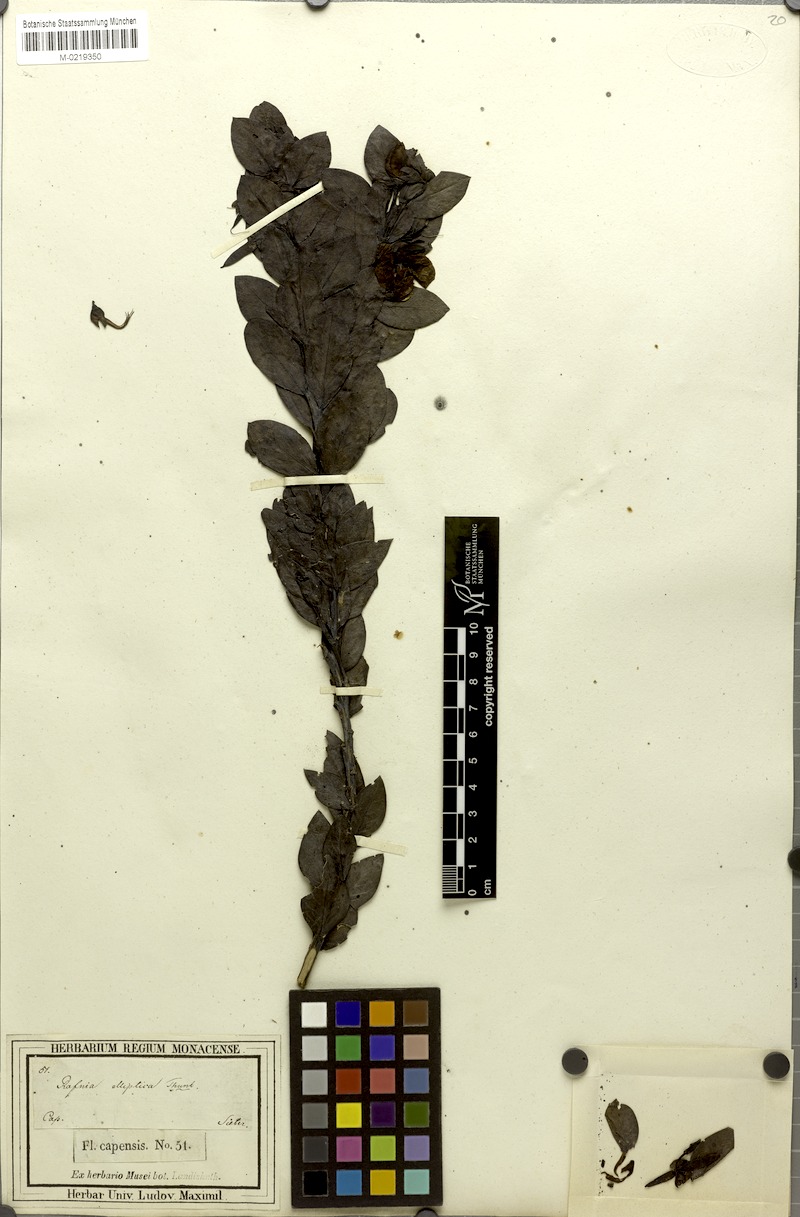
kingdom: Plantae
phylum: Tracheophyta
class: Magnoliopsida
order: Fabales
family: Fabaceae
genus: Rafnia
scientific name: Rafnia elliptica
